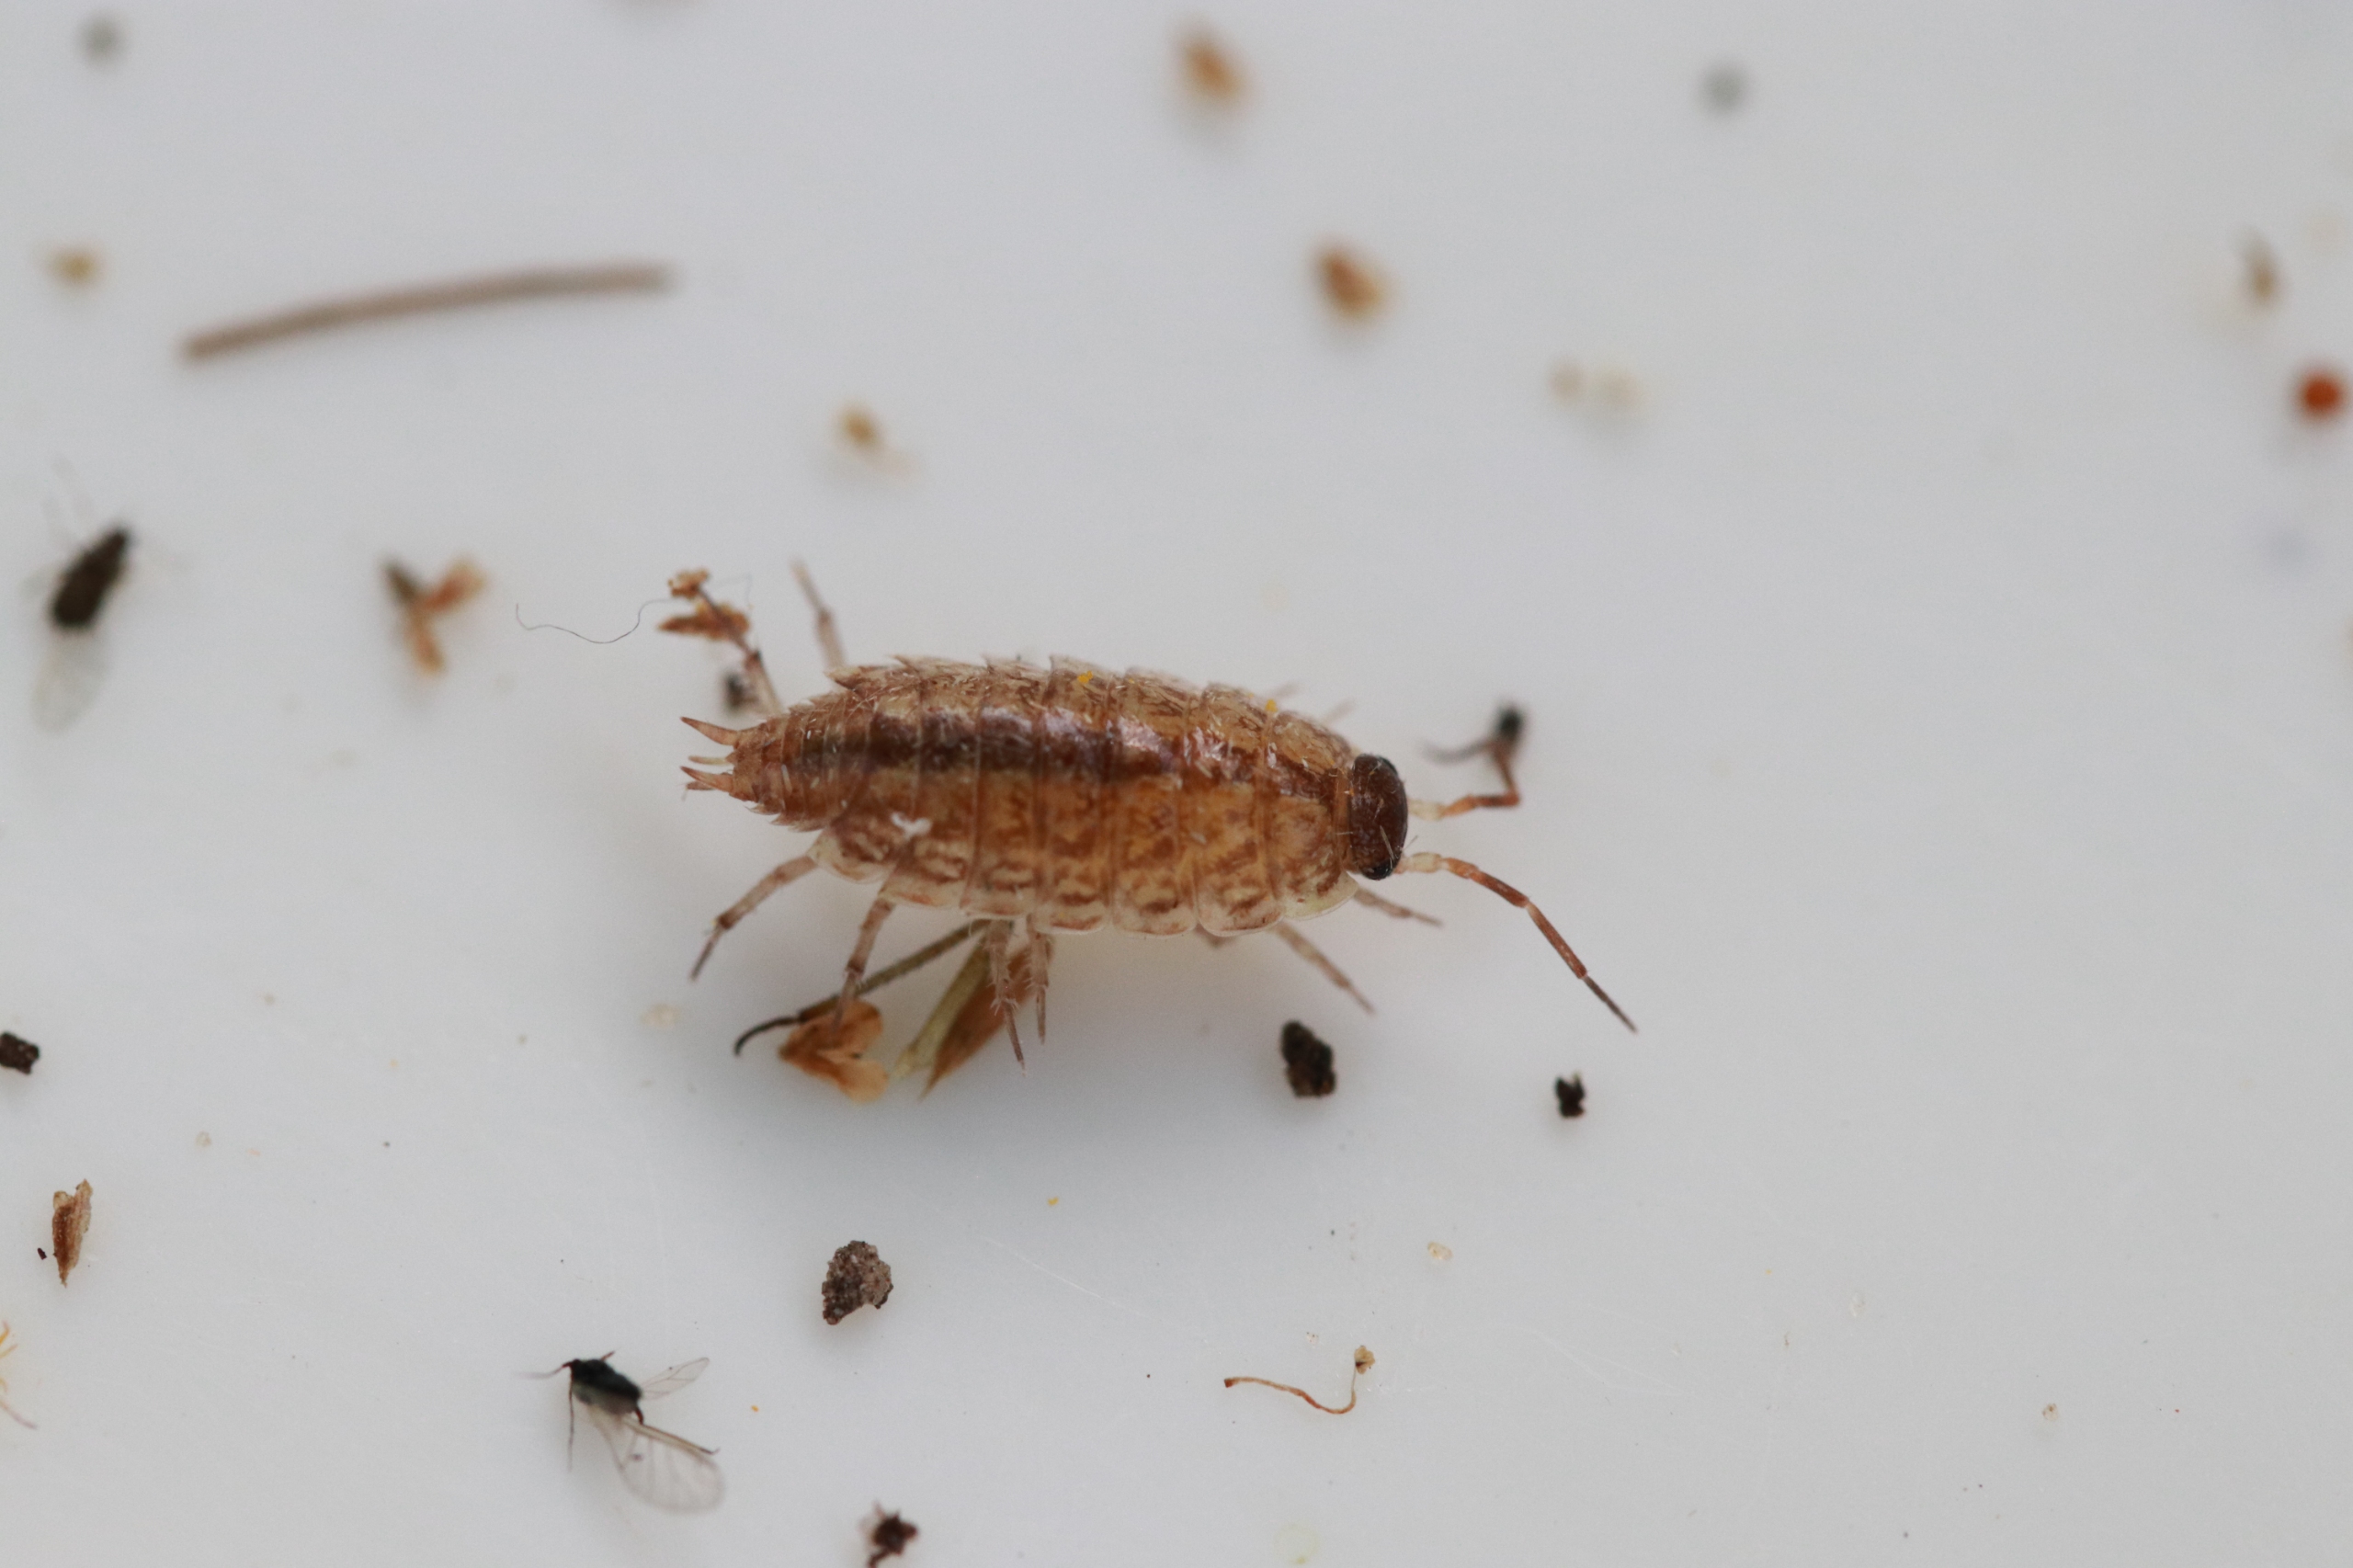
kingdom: Animalia
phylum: Arthropoda
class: Malacostraca
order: Isopoda
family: Philosciidae
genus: Philoscia
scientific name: Philoscia muscorum
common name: Langbenet bænkebider
